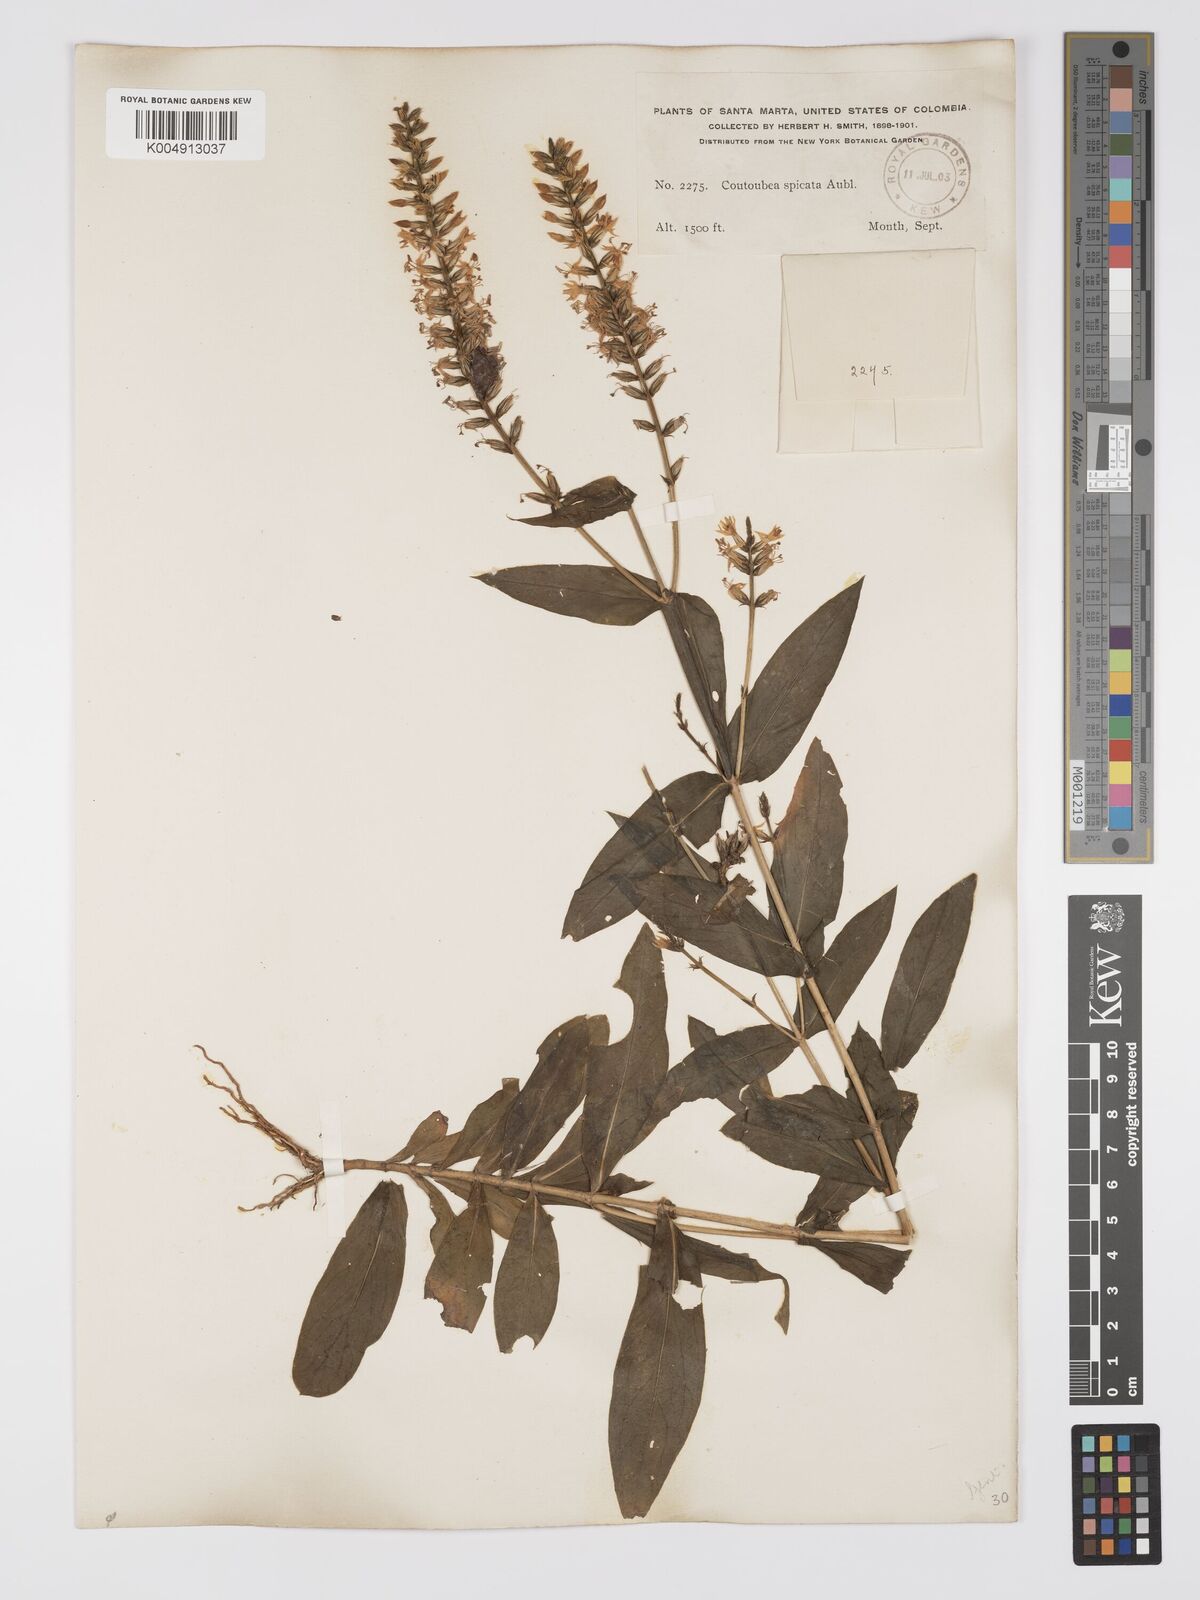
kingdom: Plantae
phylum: Tracheophyta
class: Magnoliopsida
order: Gentianales
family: Gentianaceae
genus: Coutoubea
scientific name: Coutoubea spicata
